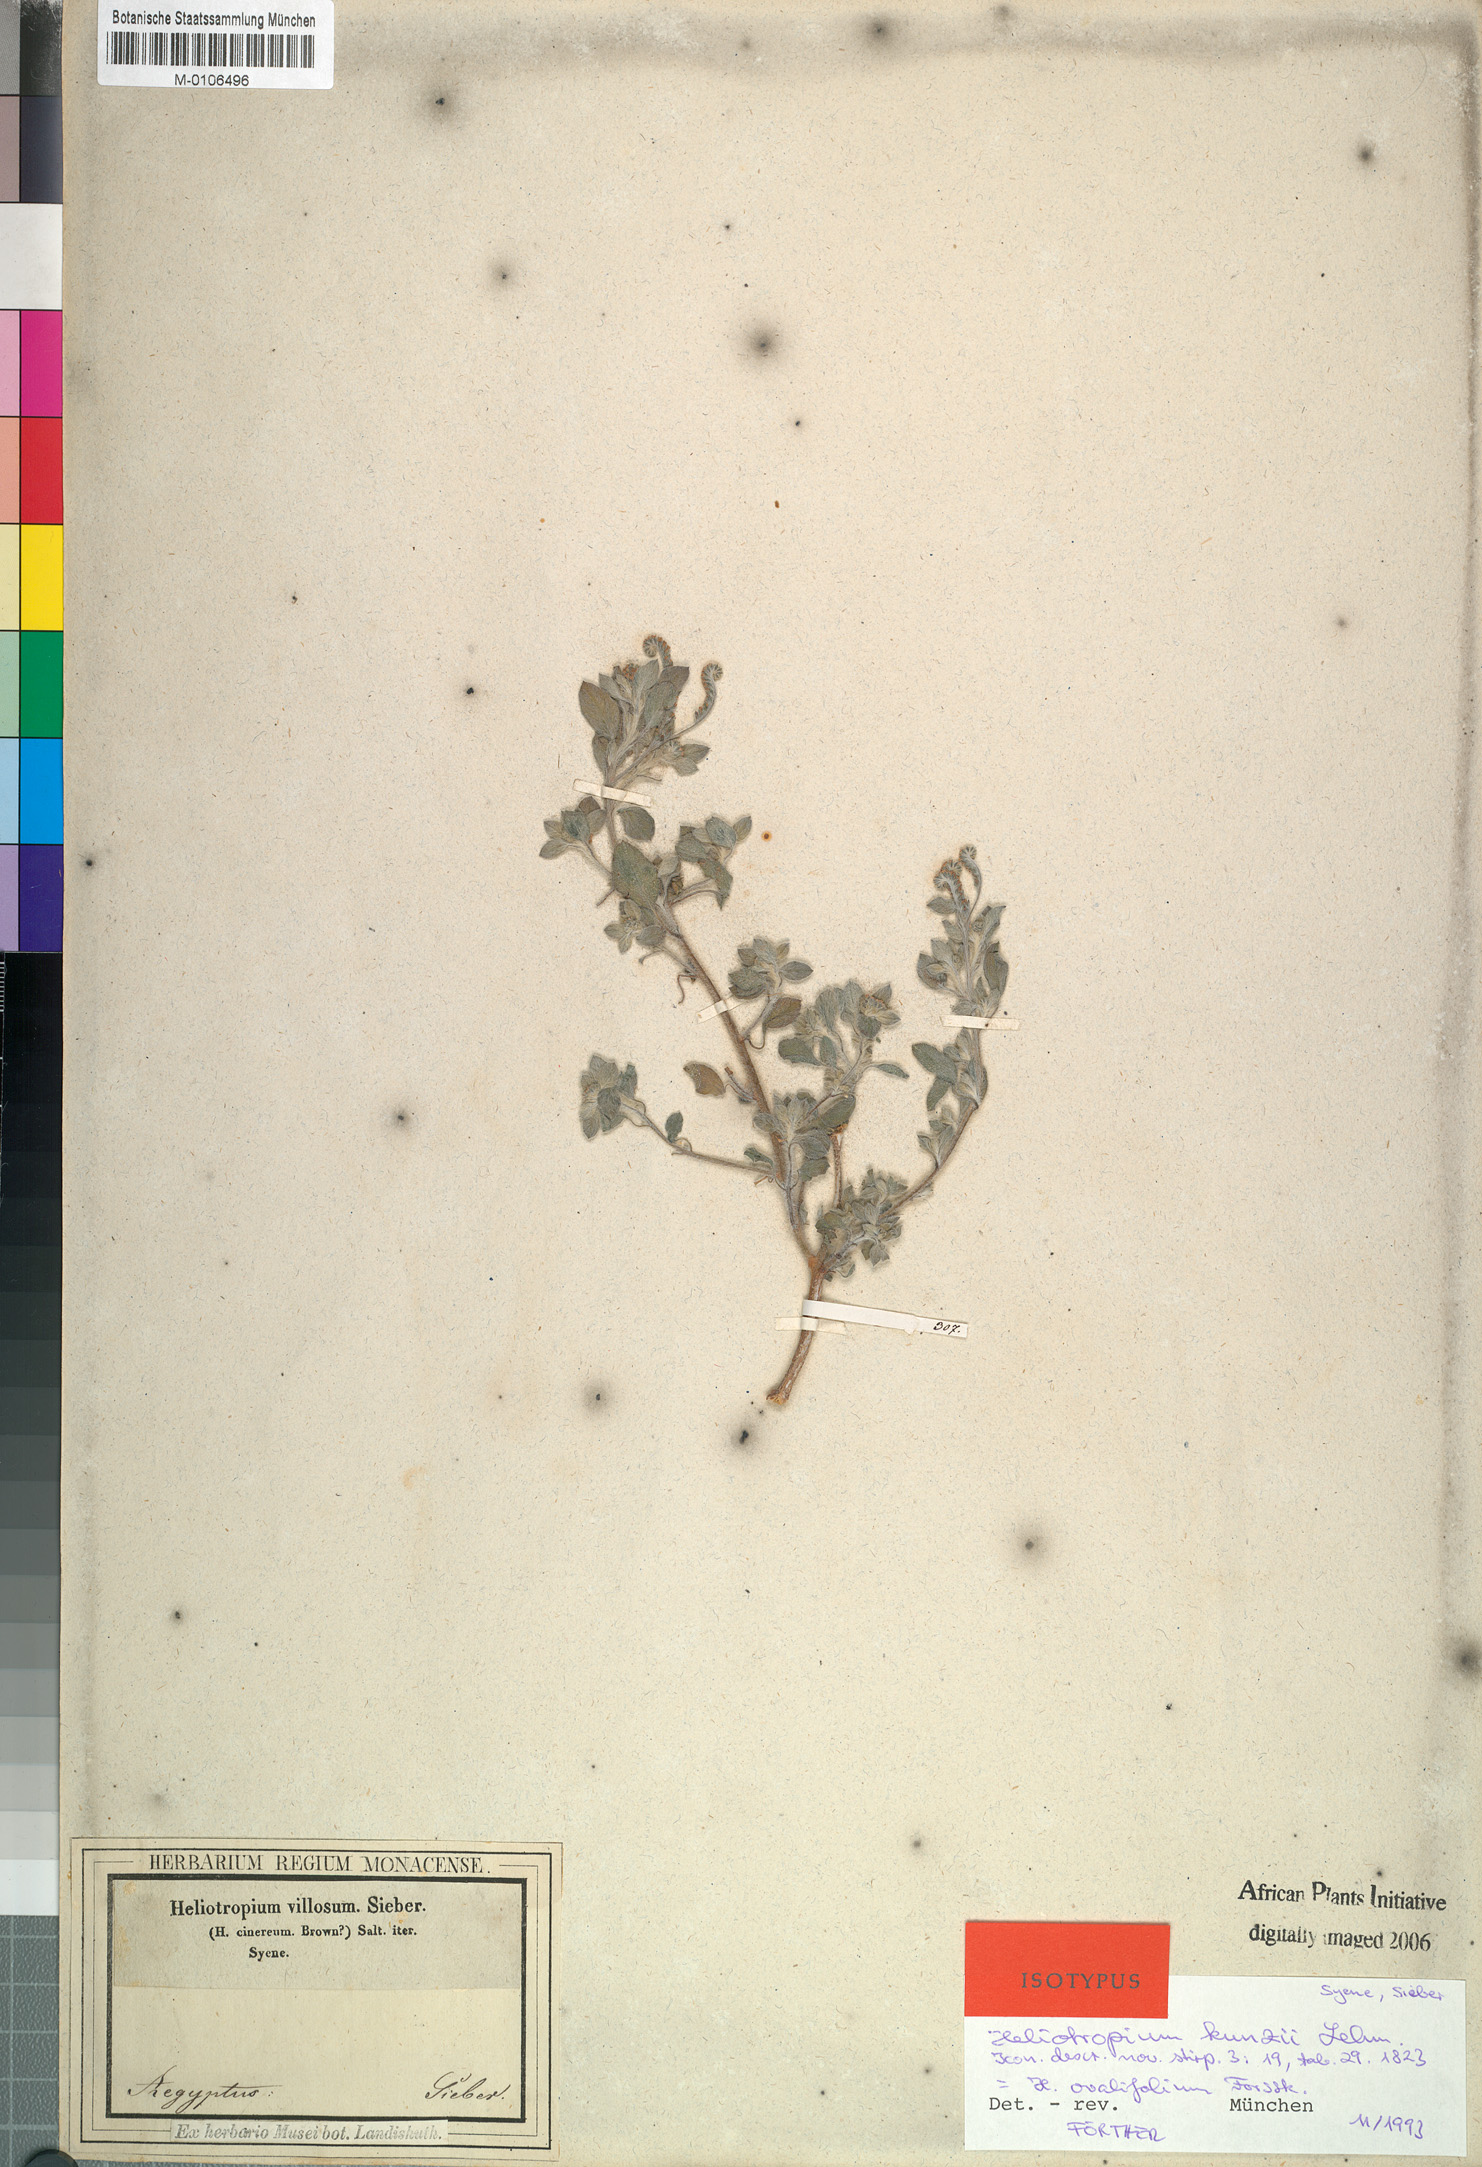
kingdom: Plantae
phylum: Tracheophyta
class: Magnoliopsida
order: Boraginales
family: Heliotropiaceae
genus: Euploca
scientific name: Euploca ovalifolia
